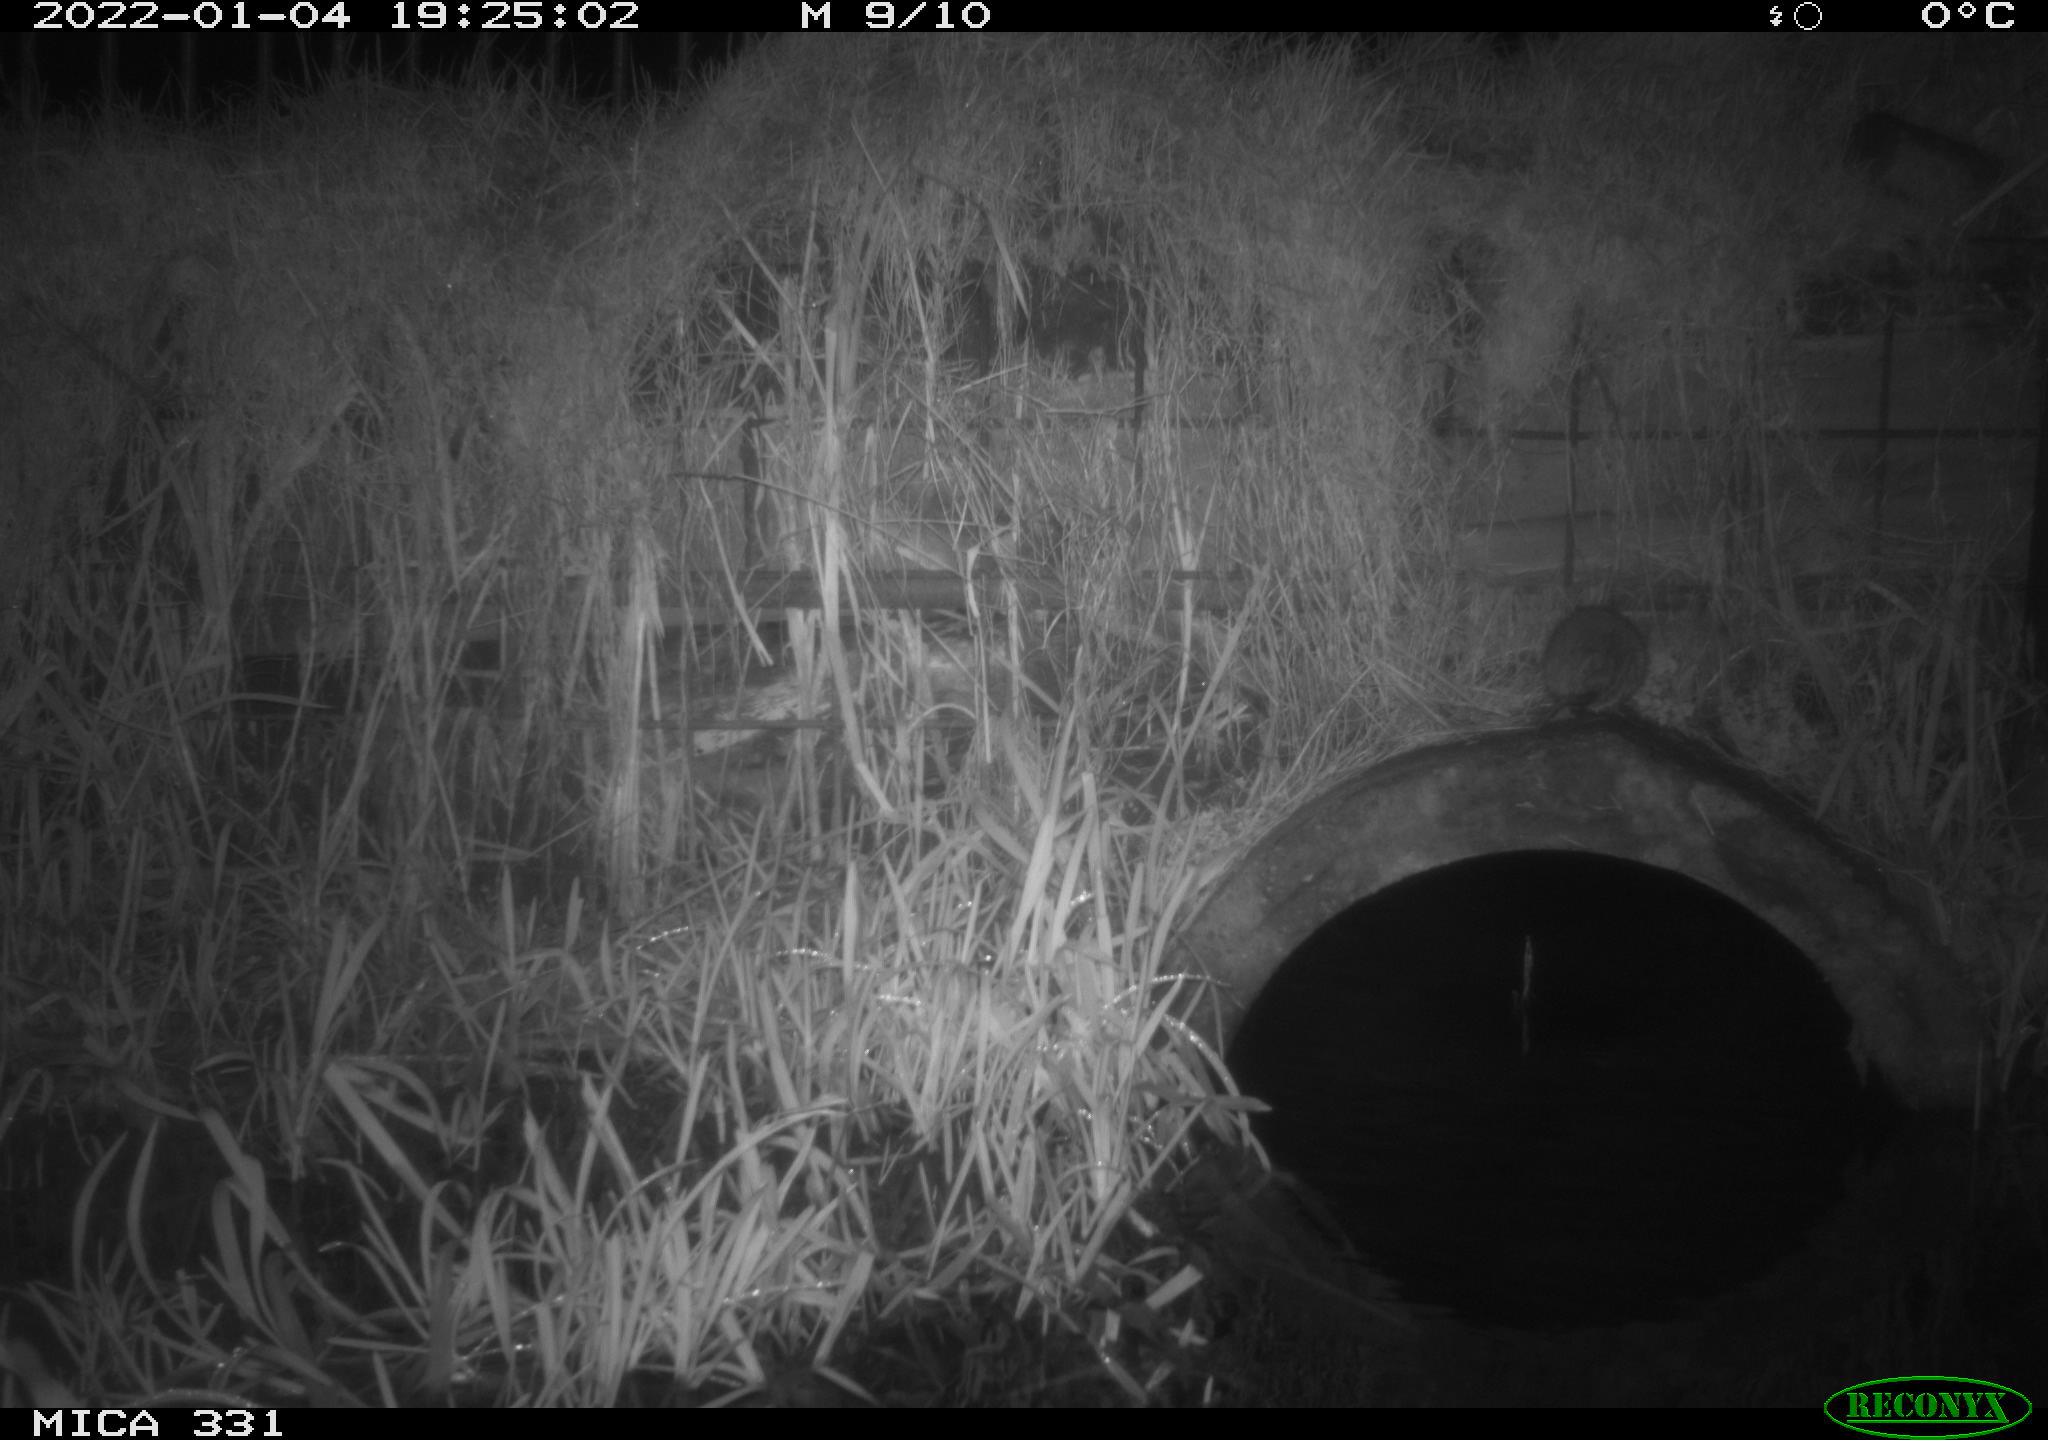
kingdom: Animalia
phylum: Chordata
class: Mammalia
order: Rodentia
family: Muridae
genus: Rattus
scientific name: Rattus norvegicus
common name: Brown rat
